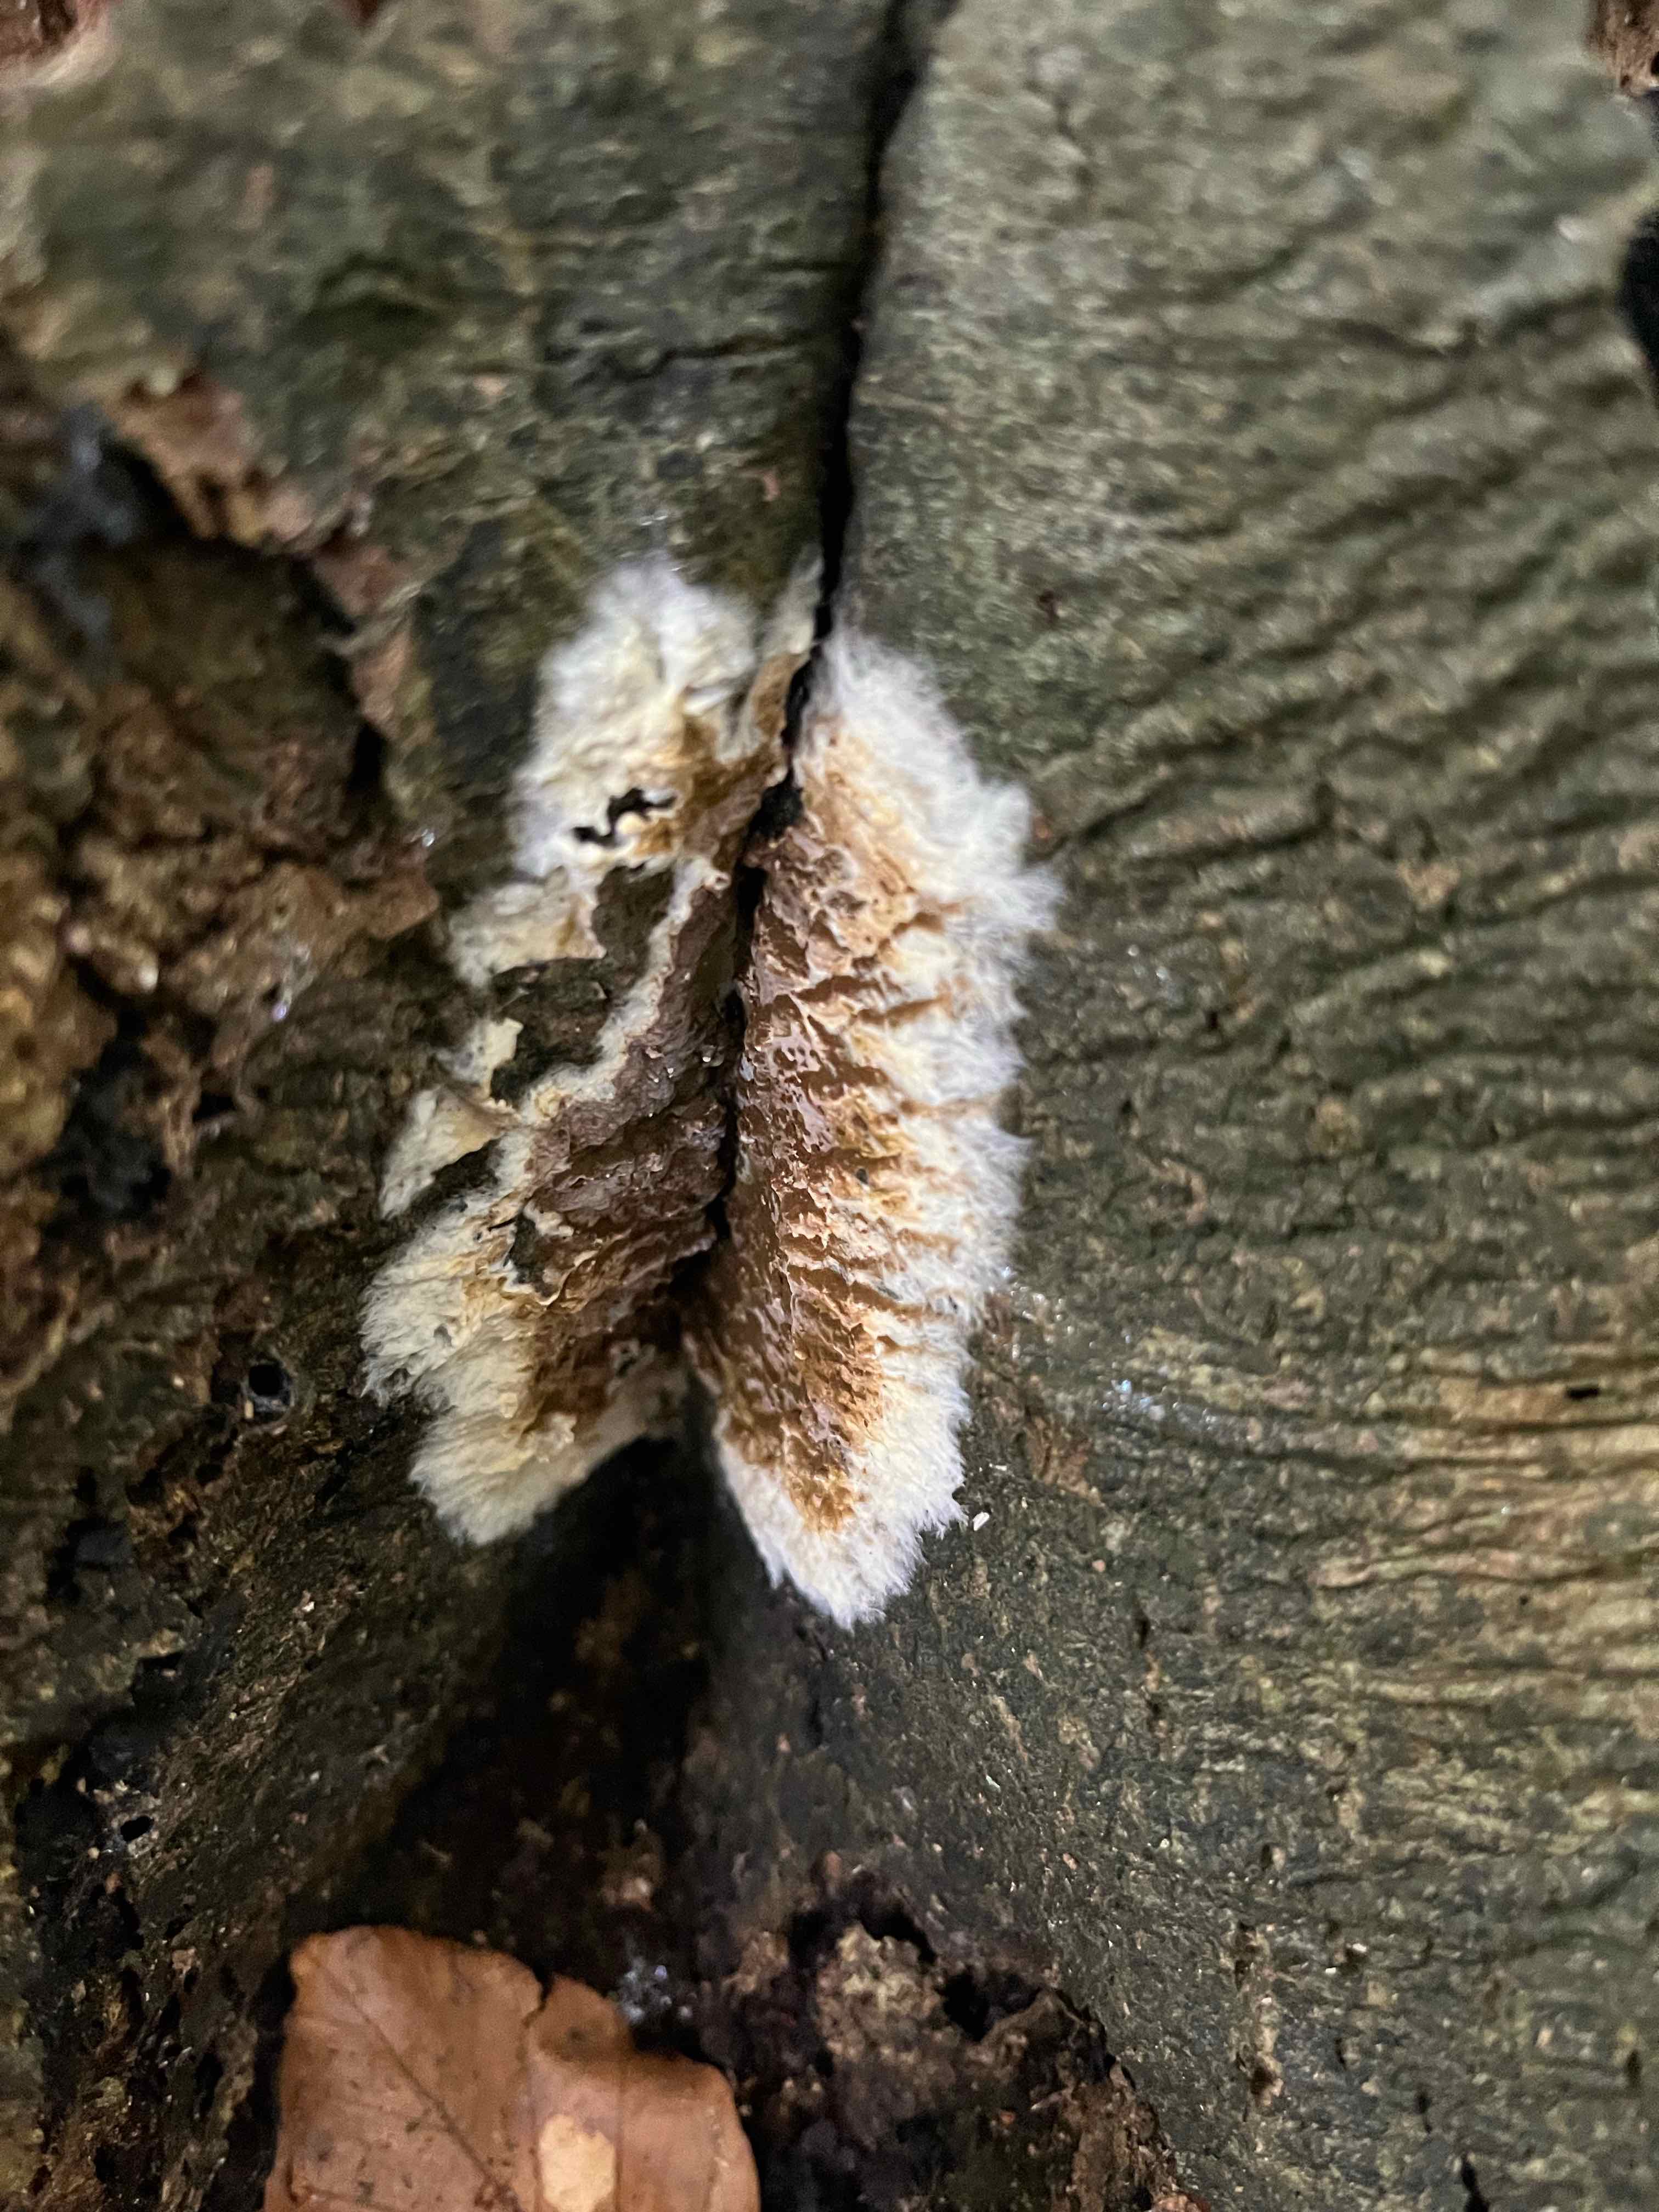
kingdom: Fungi
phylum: Basidiomycota
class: Agaricomycetes
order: Boletales
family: Coniophoraceae
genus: Coniophora
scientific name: Coniophora puteana
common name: gul tømmersvamp
